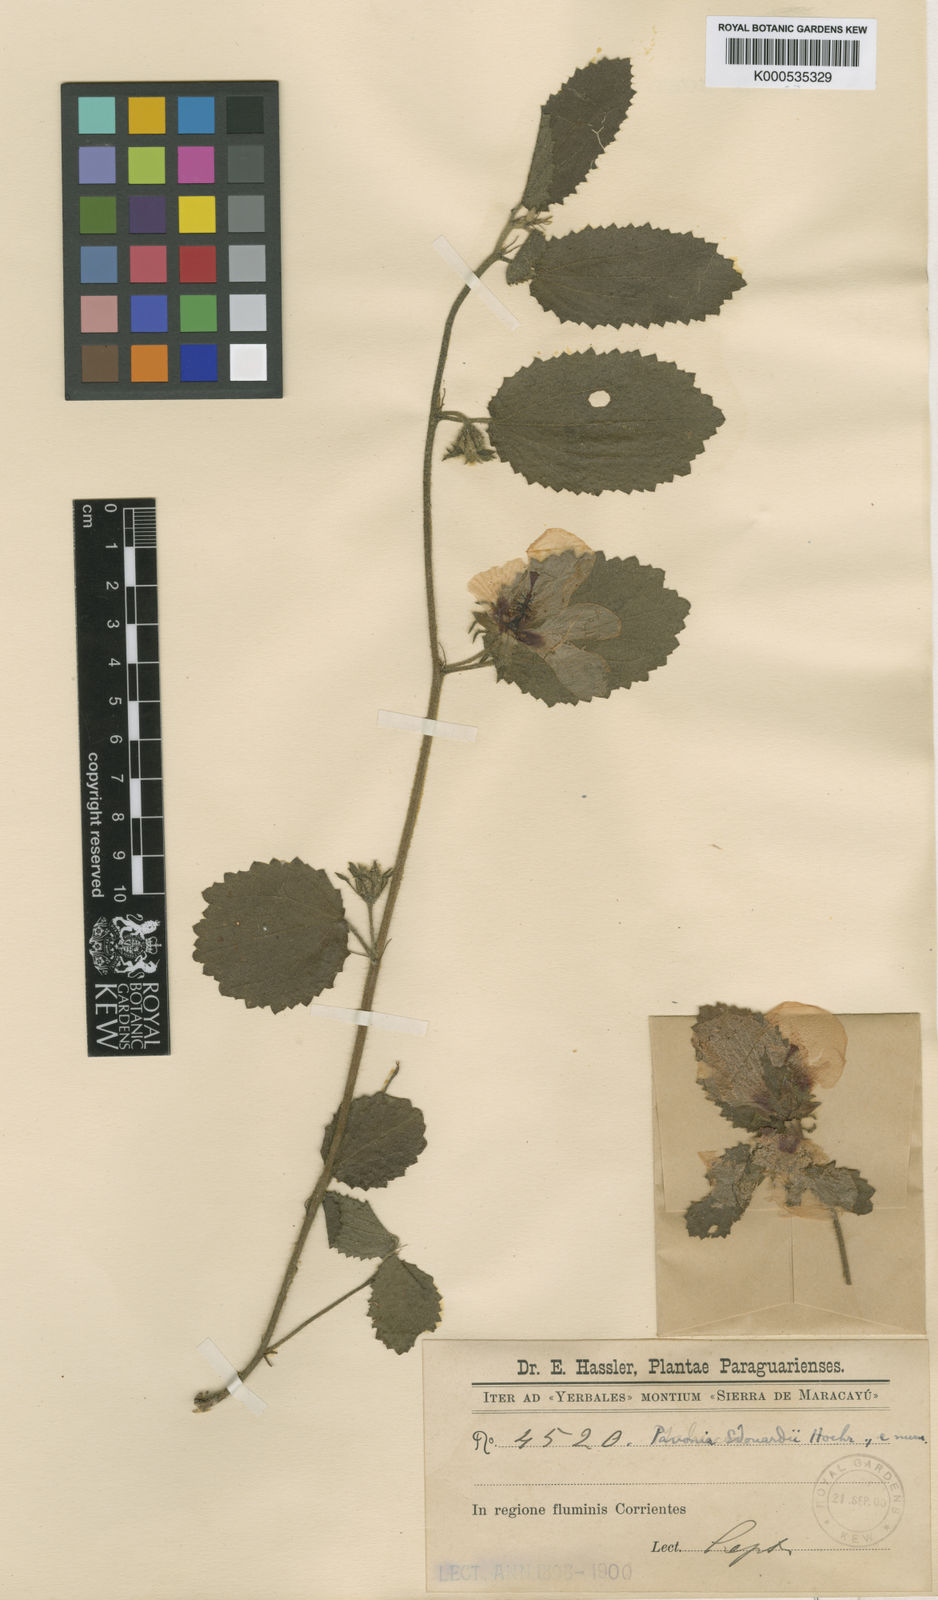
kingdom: Plantae
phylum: Tracheophyta
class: Magnoliopsida
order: Malvales
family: Malvaceae
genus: Peltaea
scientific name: Peltaea edouardii
